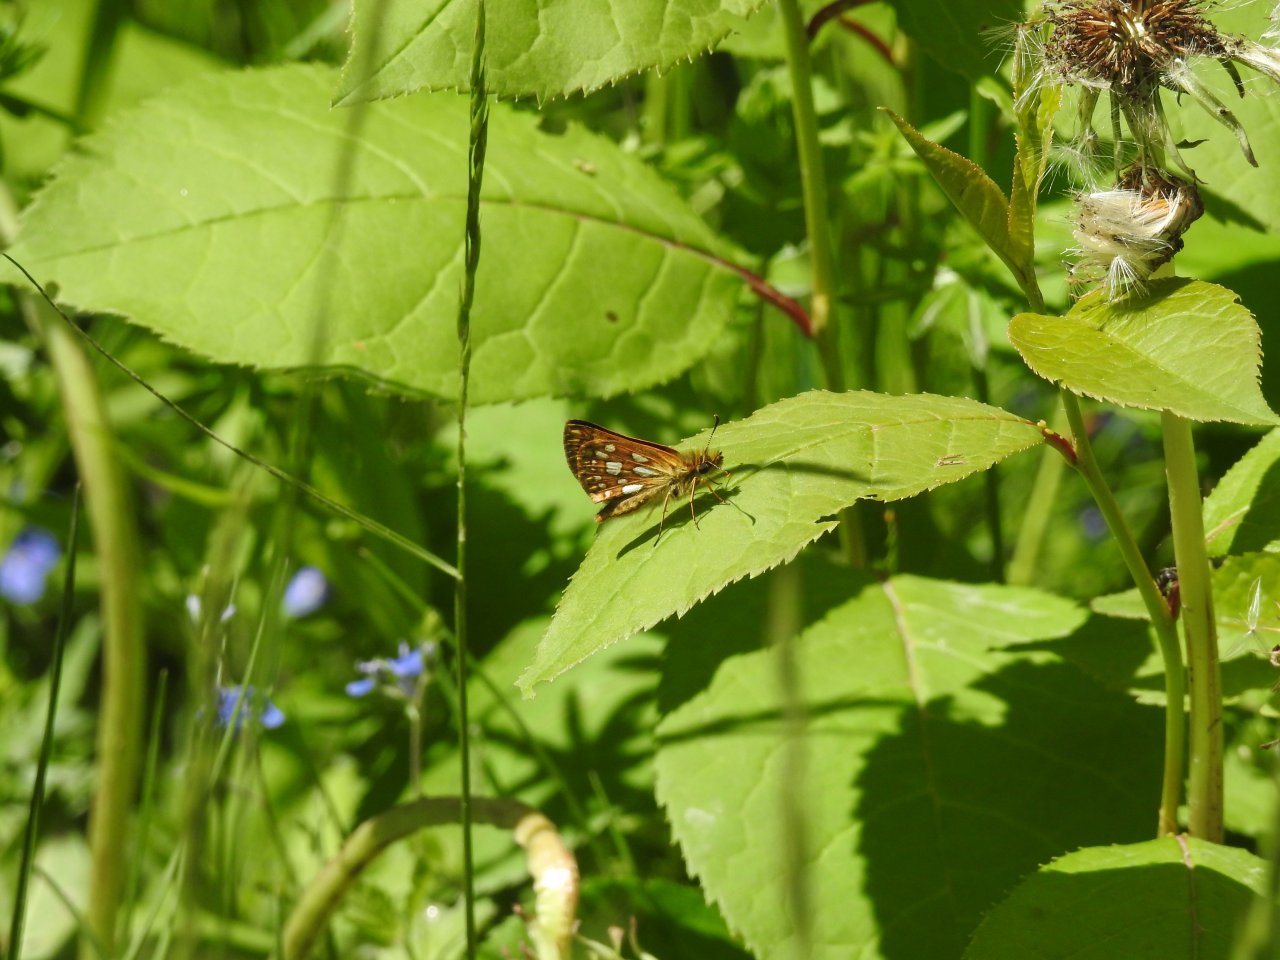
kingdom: Animalia
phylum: Arthropoda
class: Insecta
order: Lepidoptera
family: Hesperiidae
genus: Carterocephalus
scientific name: Carterocephalus palaemon
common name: Chequered Skipper
